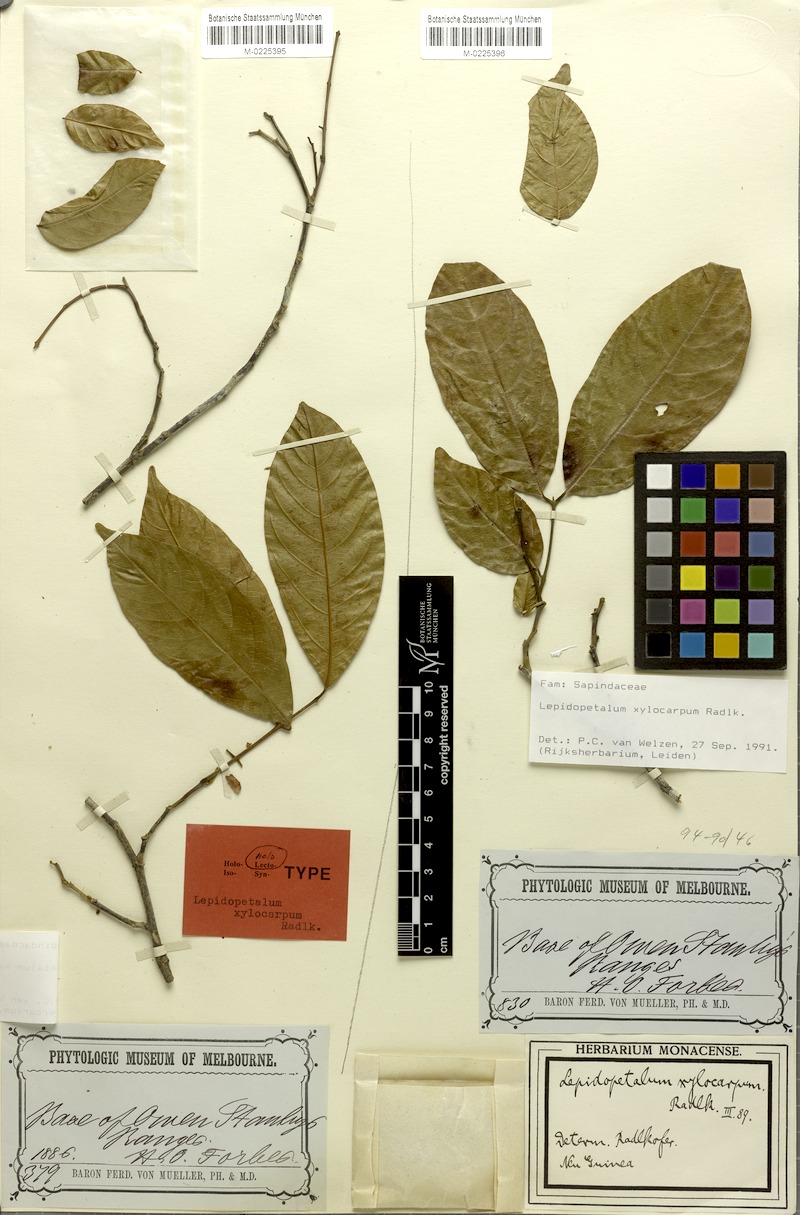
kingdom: Plantae
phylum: Tracheophyta
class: Magnoliopsida
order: Sapindales
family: Sapindaceae
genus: Lepidopetalum
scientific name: Lepidopetalum xylocarpum
